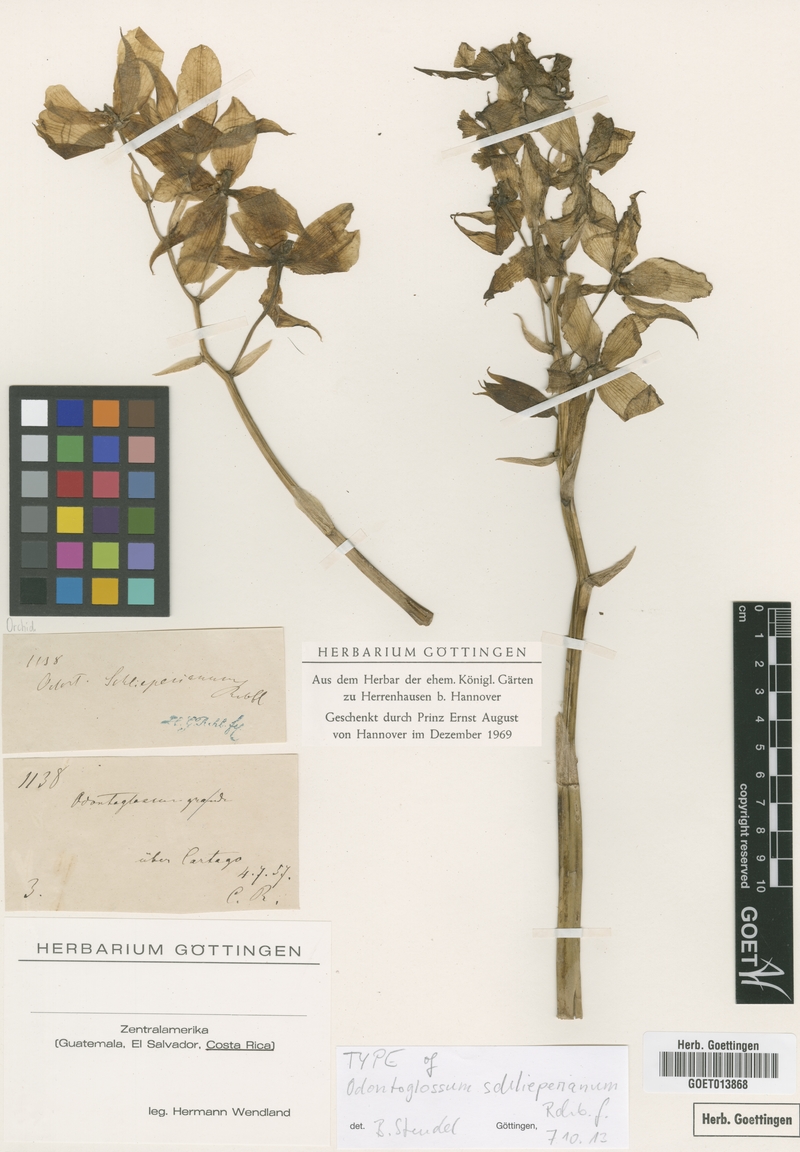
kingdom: Plantae
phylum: Tracheophyta
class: Liliopsida
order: Asparagales
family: Orchidaceae
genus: Rossioglossum
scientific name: Rossioglossum schlieperianum
